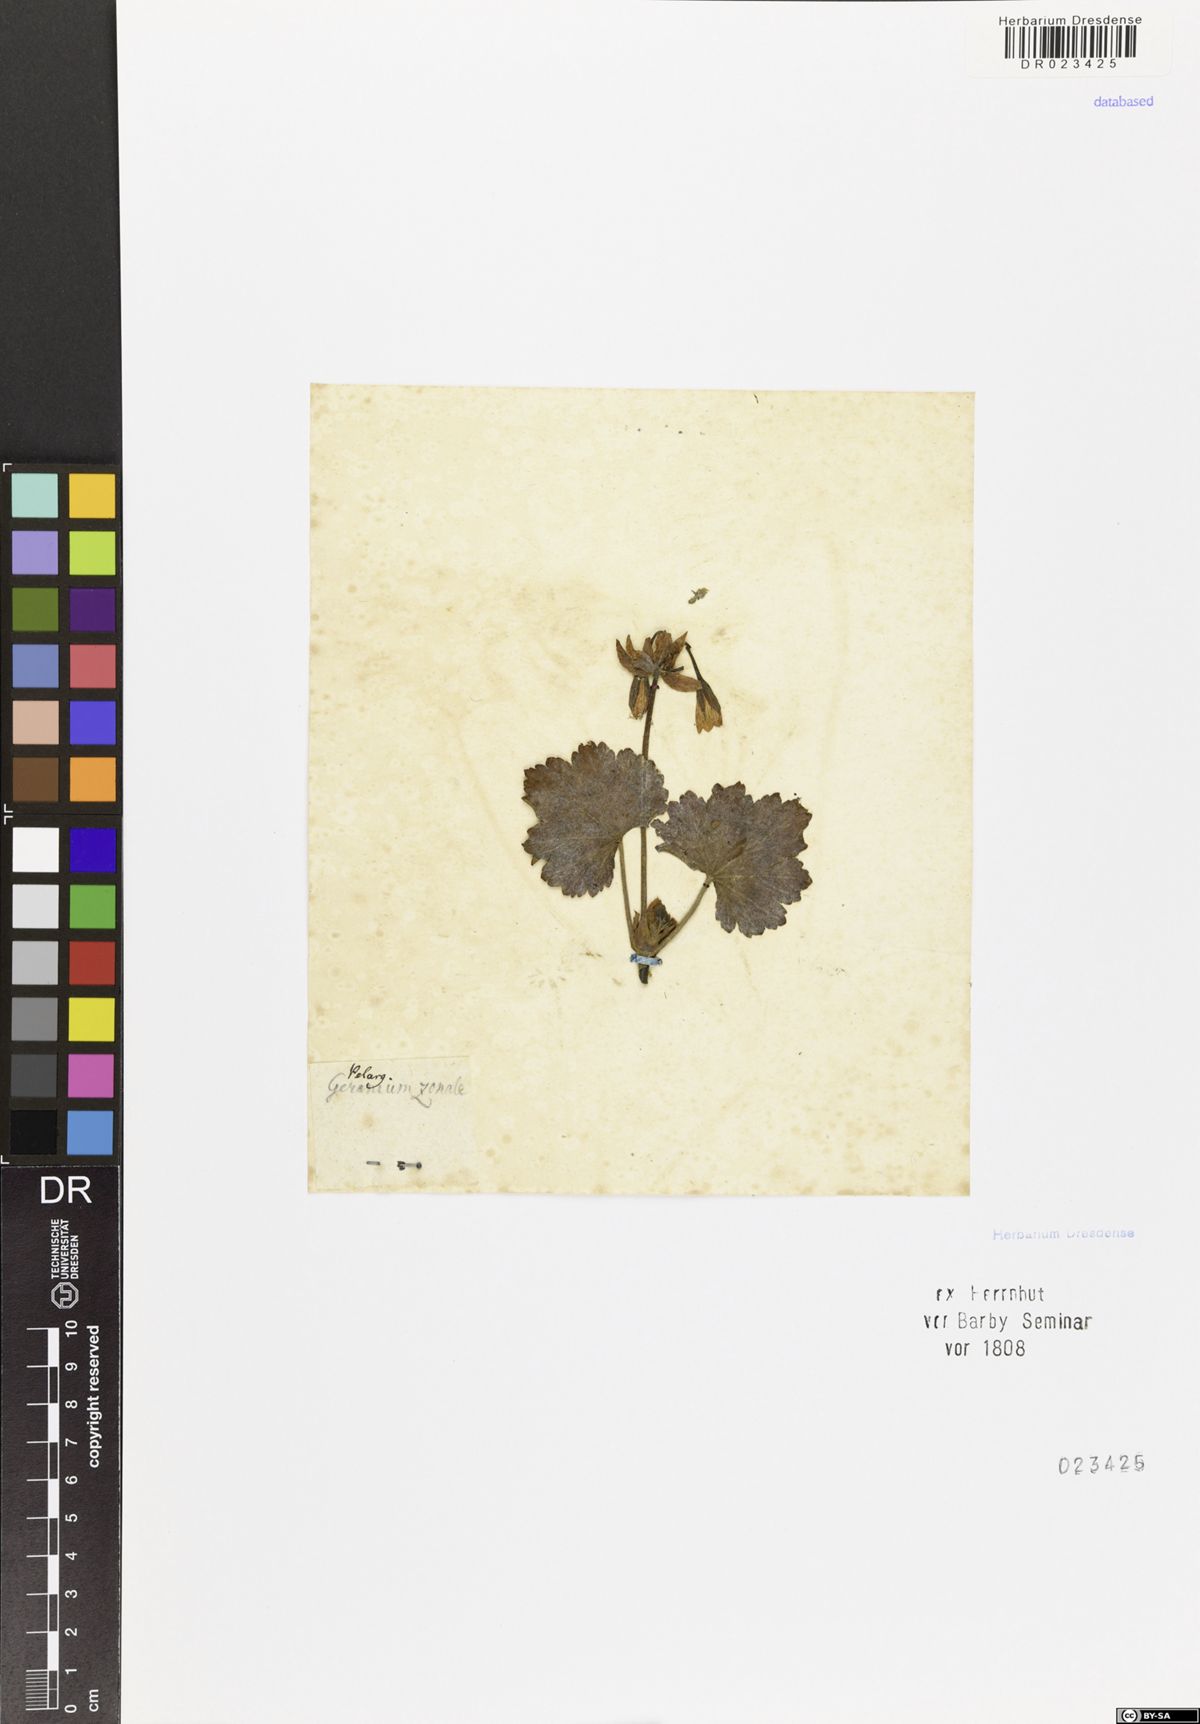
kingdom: Plantae
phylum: Tracheophyta
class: Magnoliopsida
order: Geraniales
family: Geraniaceae
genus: Pelargonium
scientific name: Pelargonium zonale
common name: Horseshoe geranium
